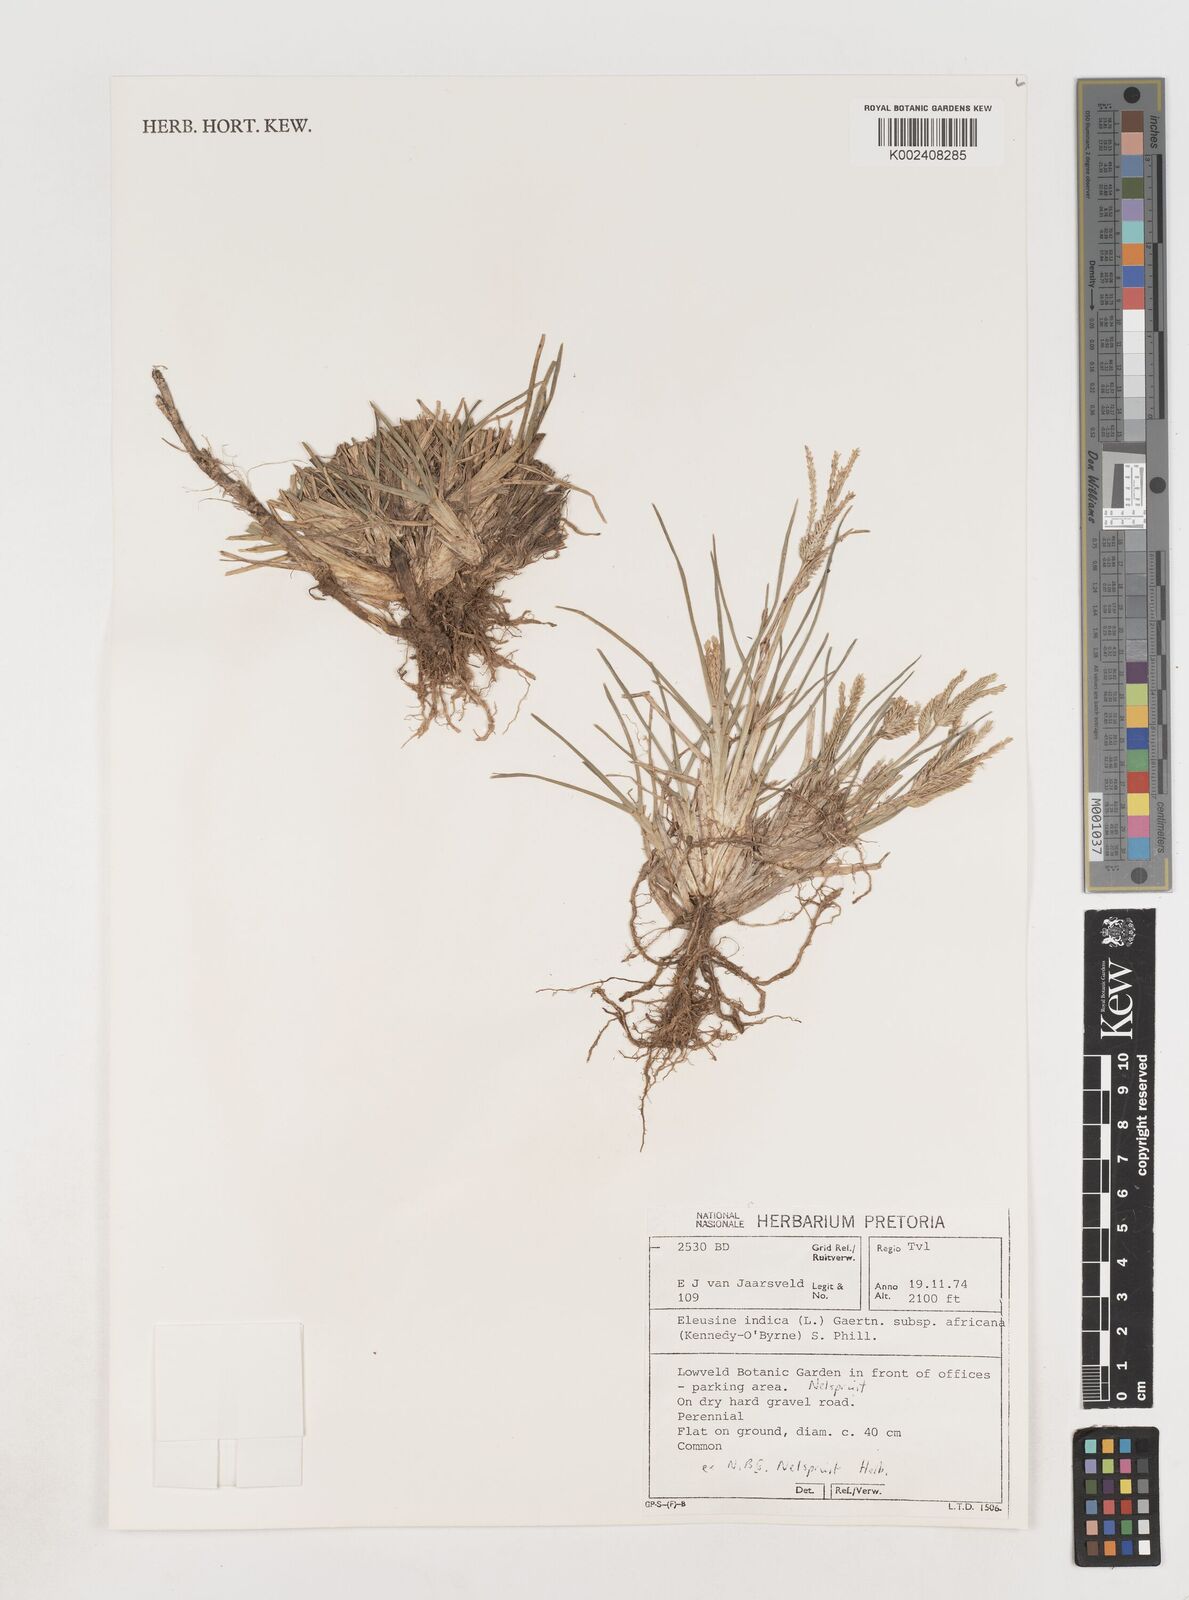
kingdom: Plantae
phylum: Tracheophyta
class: Liliopsida
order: Poales
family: Poaceae
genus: Eleusine
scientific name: Eleusine africana
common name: Wild african finger millet
